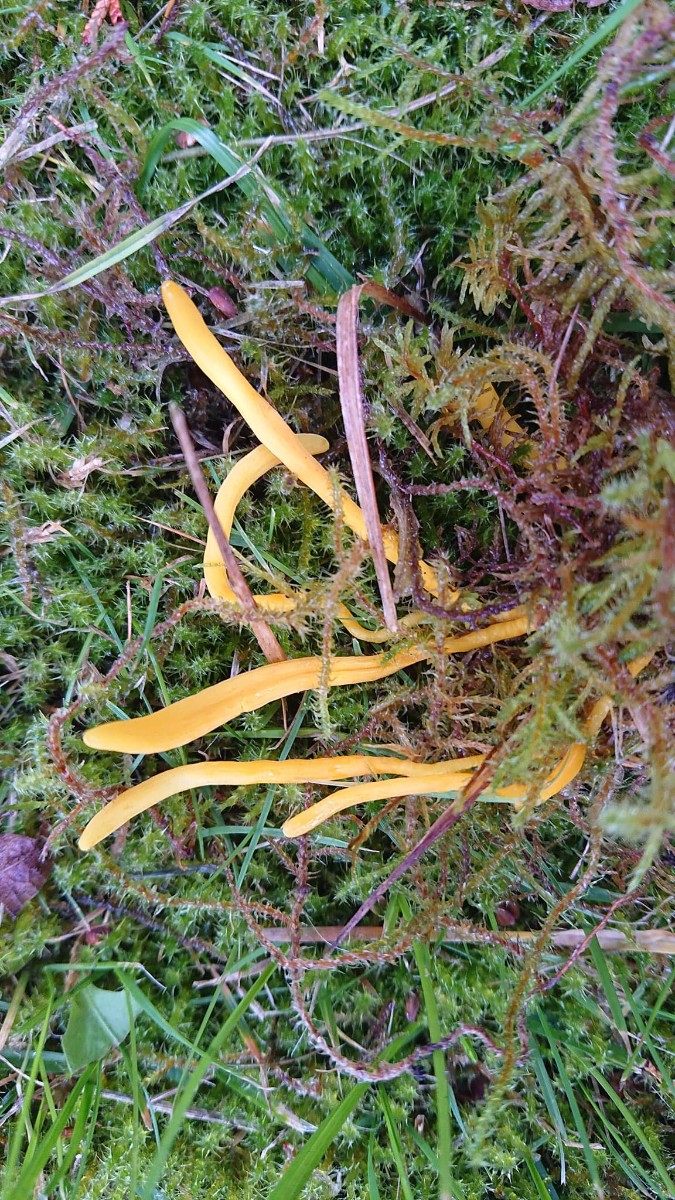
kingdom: Fungi
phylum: Basidiomycota
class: Agaricomycetes
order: Agaricales
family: Clavariaceae
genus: Clavulinopsis
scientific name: Clavulinopsis helvola
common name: orangegul køllesvamp
